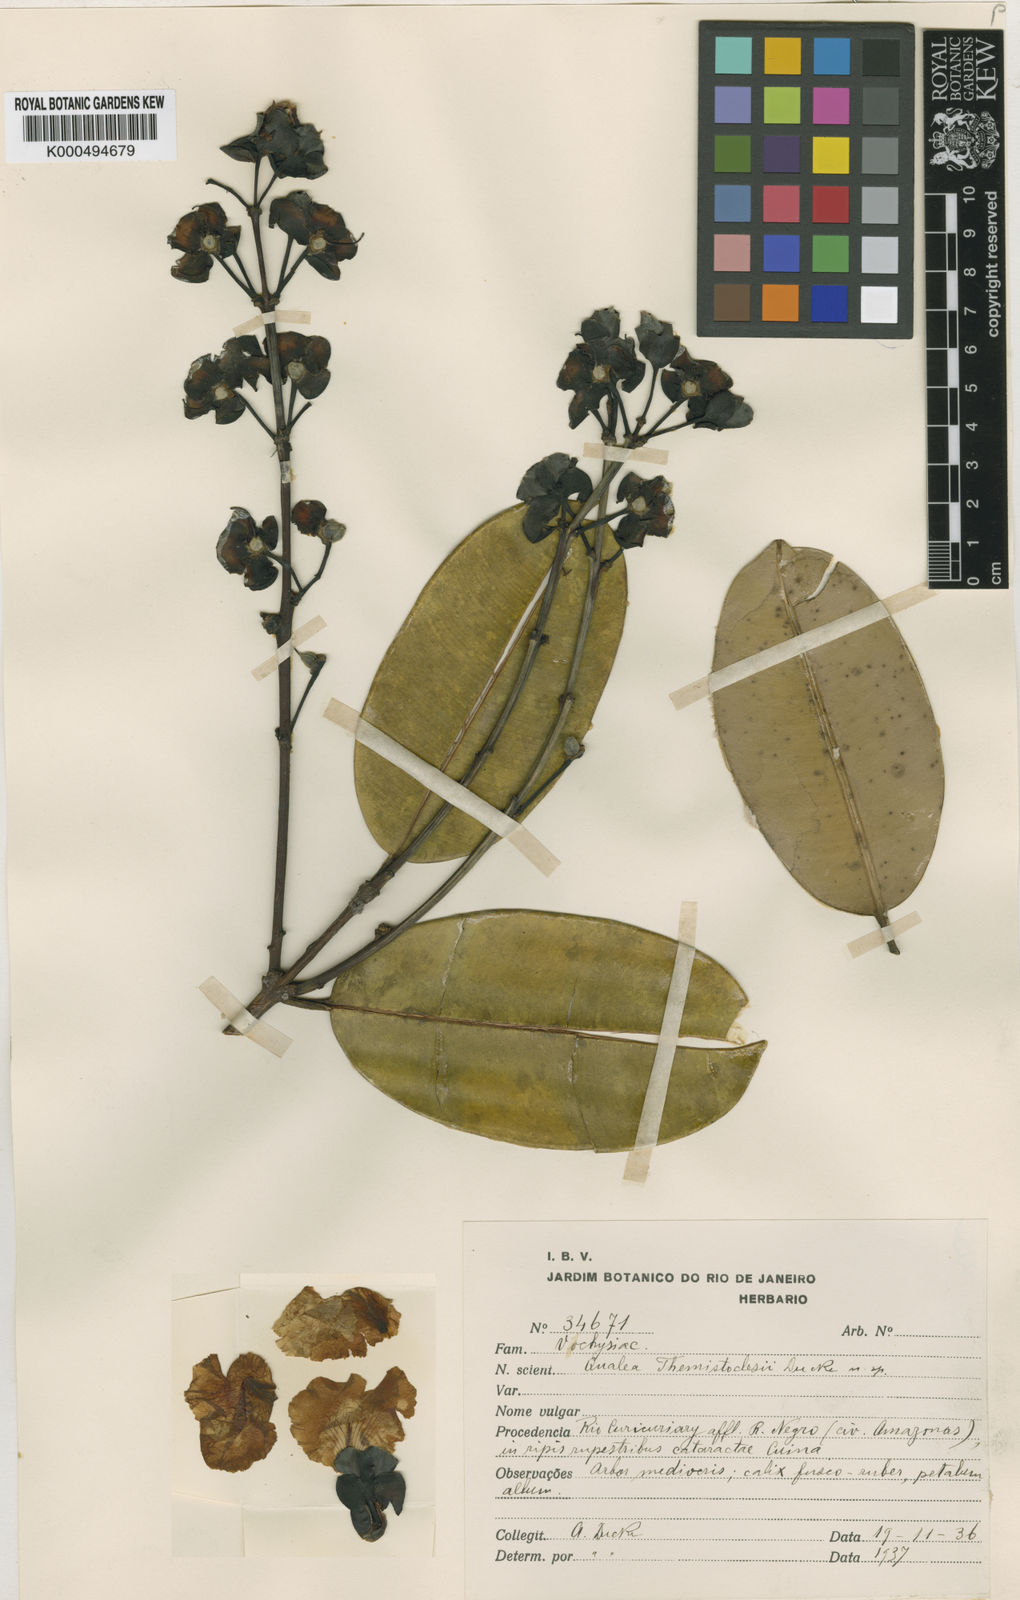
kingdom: Plantae
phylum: Tracheophyta
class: Magnoliopsida
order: Myrtales
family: Vochysiaceae
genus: Qualea
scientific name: Qualea themistoclesii
